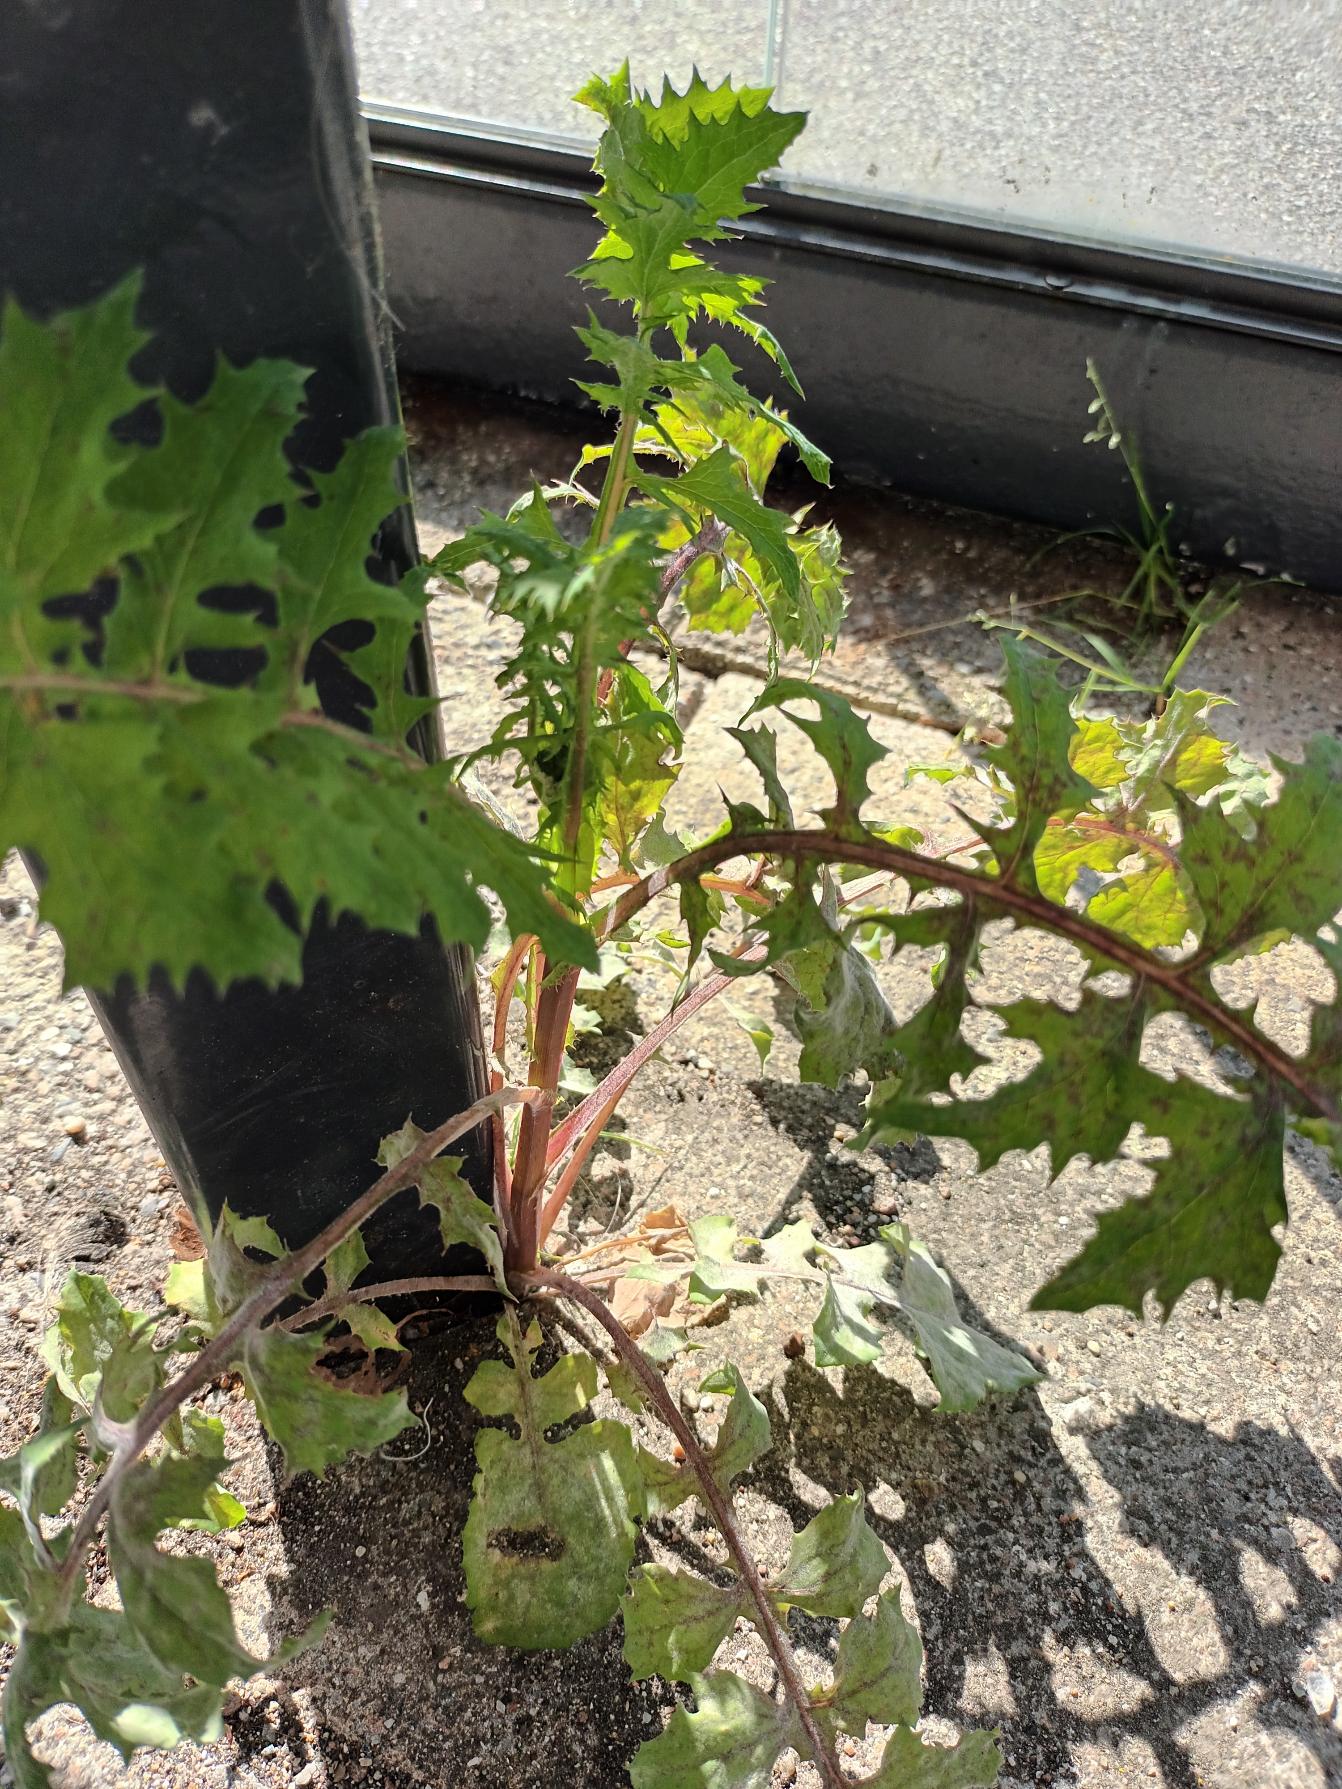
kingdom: Plantae
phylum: Tracheophyta
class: Magnoliopsida
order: Asterales
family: Asteraceae
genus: Sonchus
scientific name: Sonchus oleraceus
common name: Almindelig svinemælk
